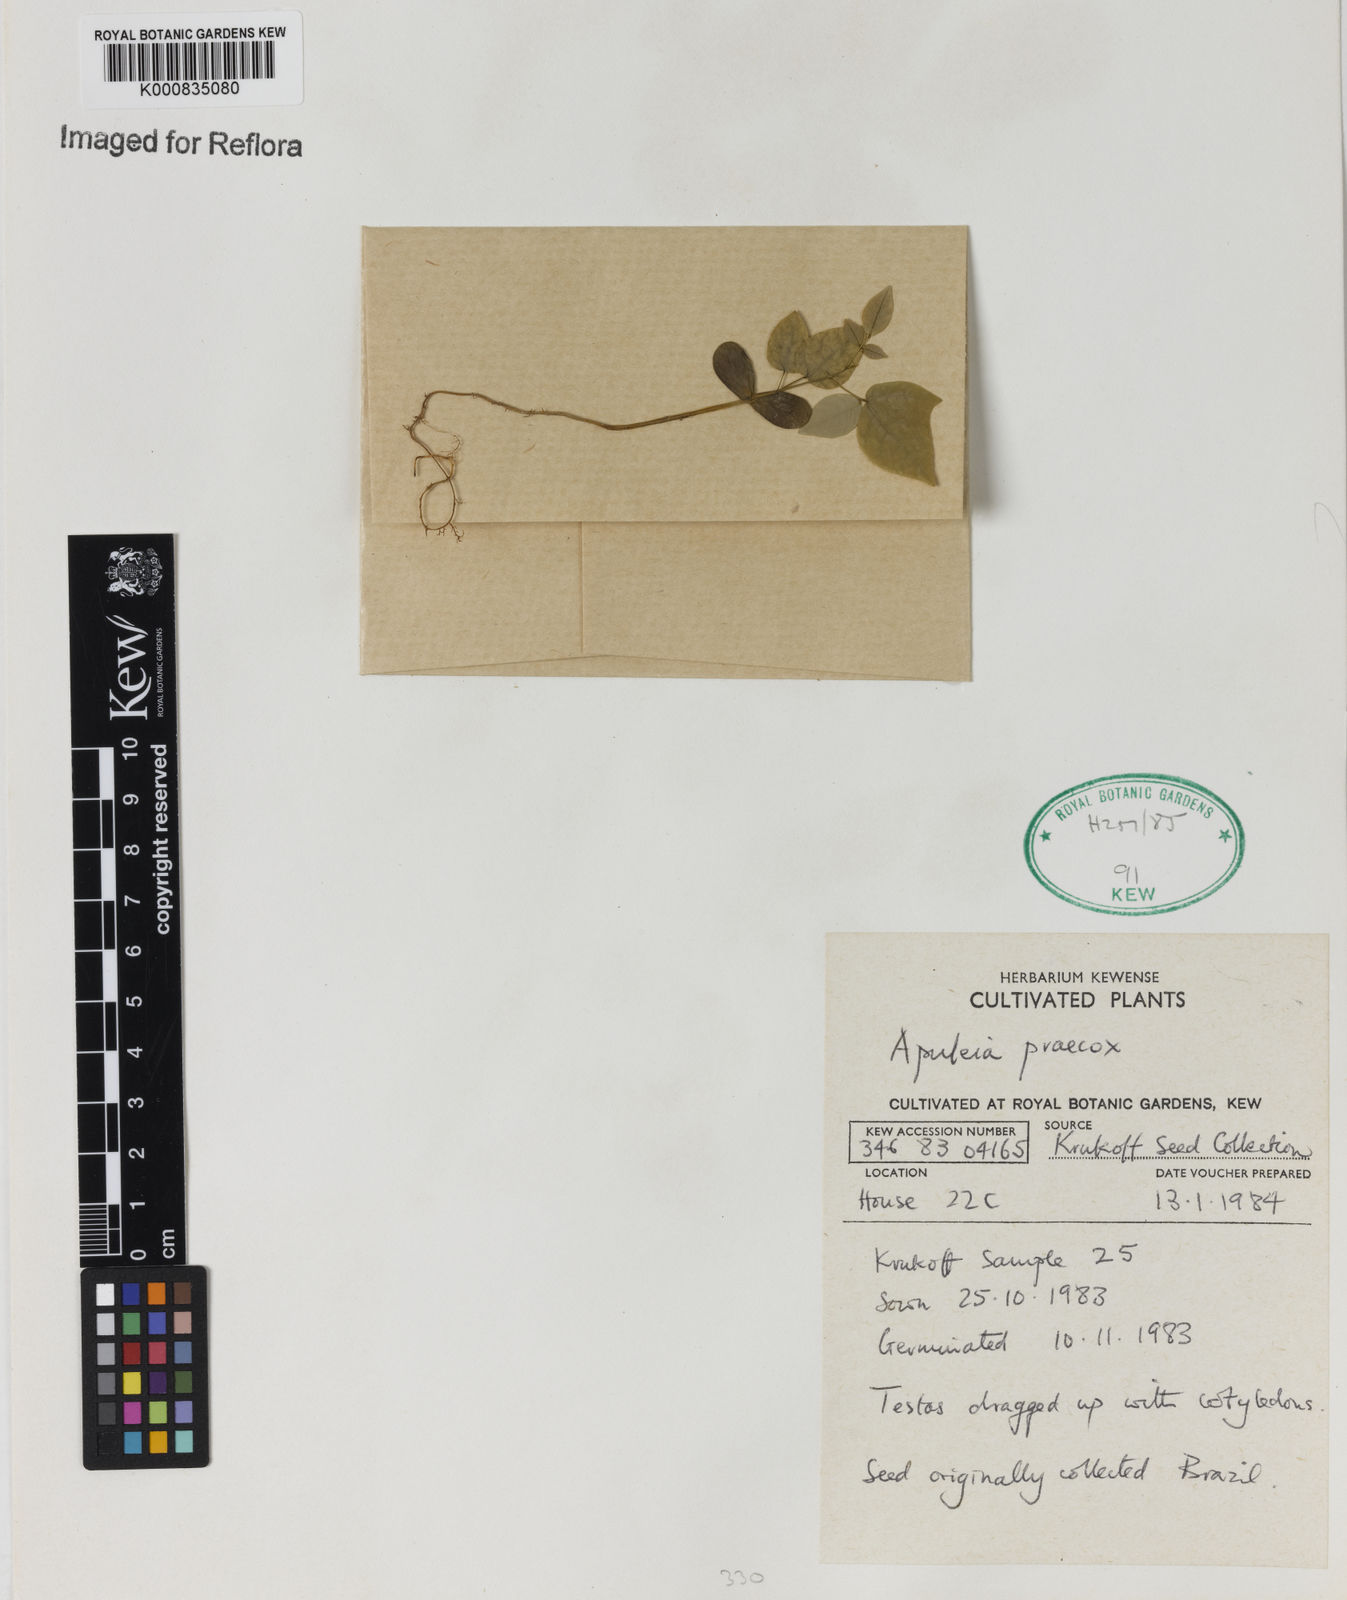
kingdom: Plantae
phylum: Tracheophyta
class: Magnoliopsida
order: Fabales
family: Fabaceae
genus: Apuleia
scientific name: Apuleia leiocarpa
